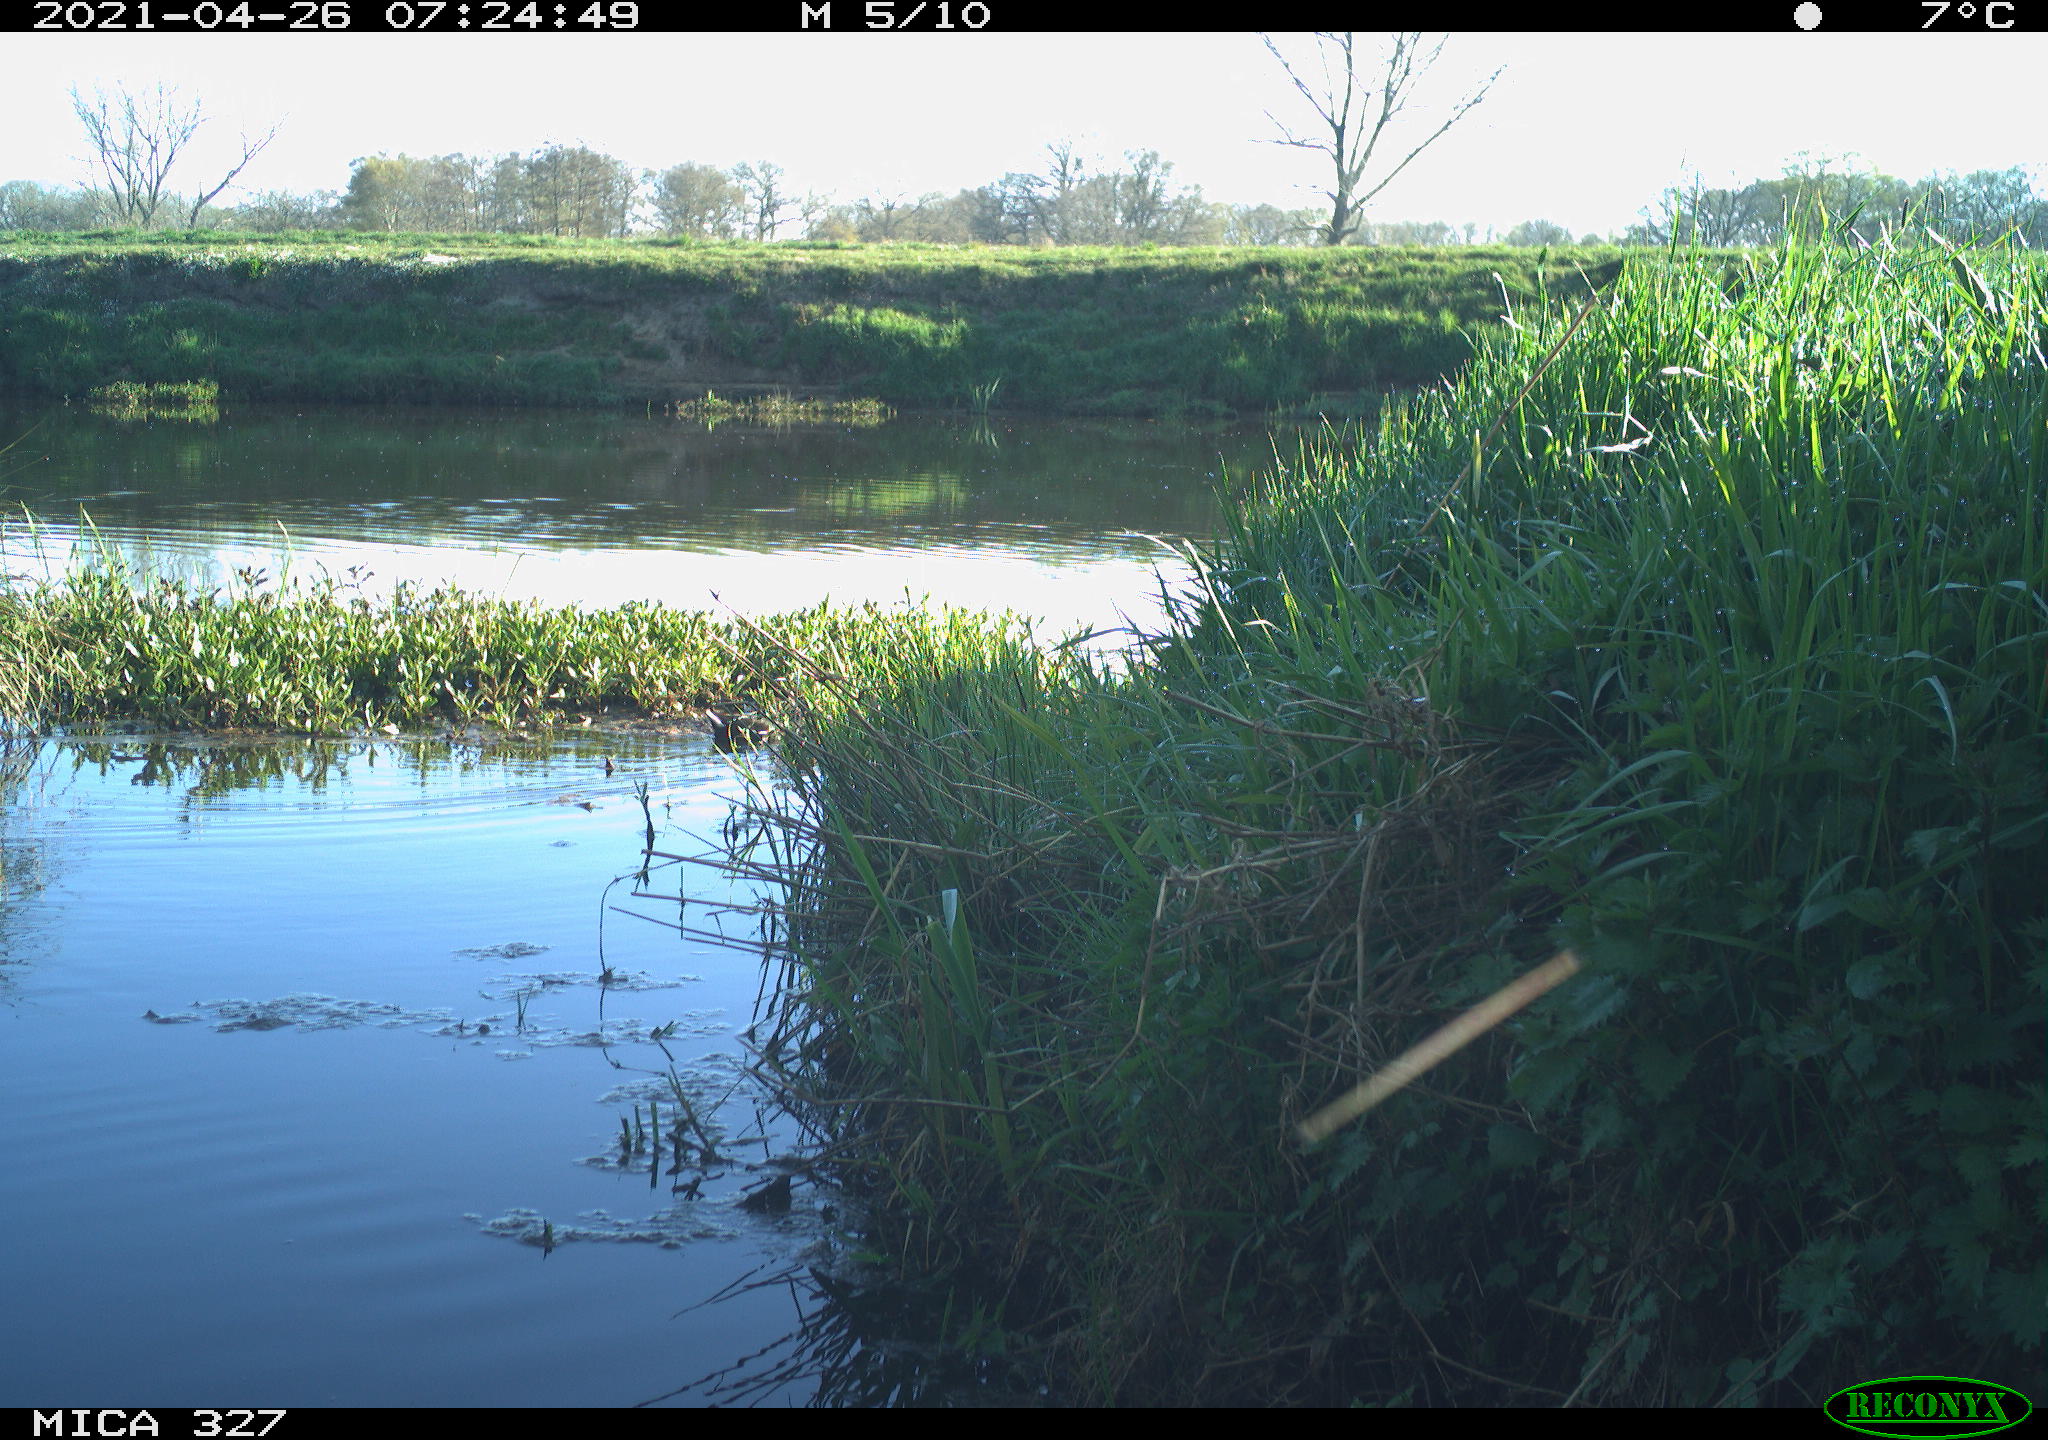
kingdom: Animalia
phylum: Chordata
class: Aves
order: Gruiformes
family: Rallidae
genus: Gallinula
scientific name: Gallinula chloropus
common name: Common moorhen
